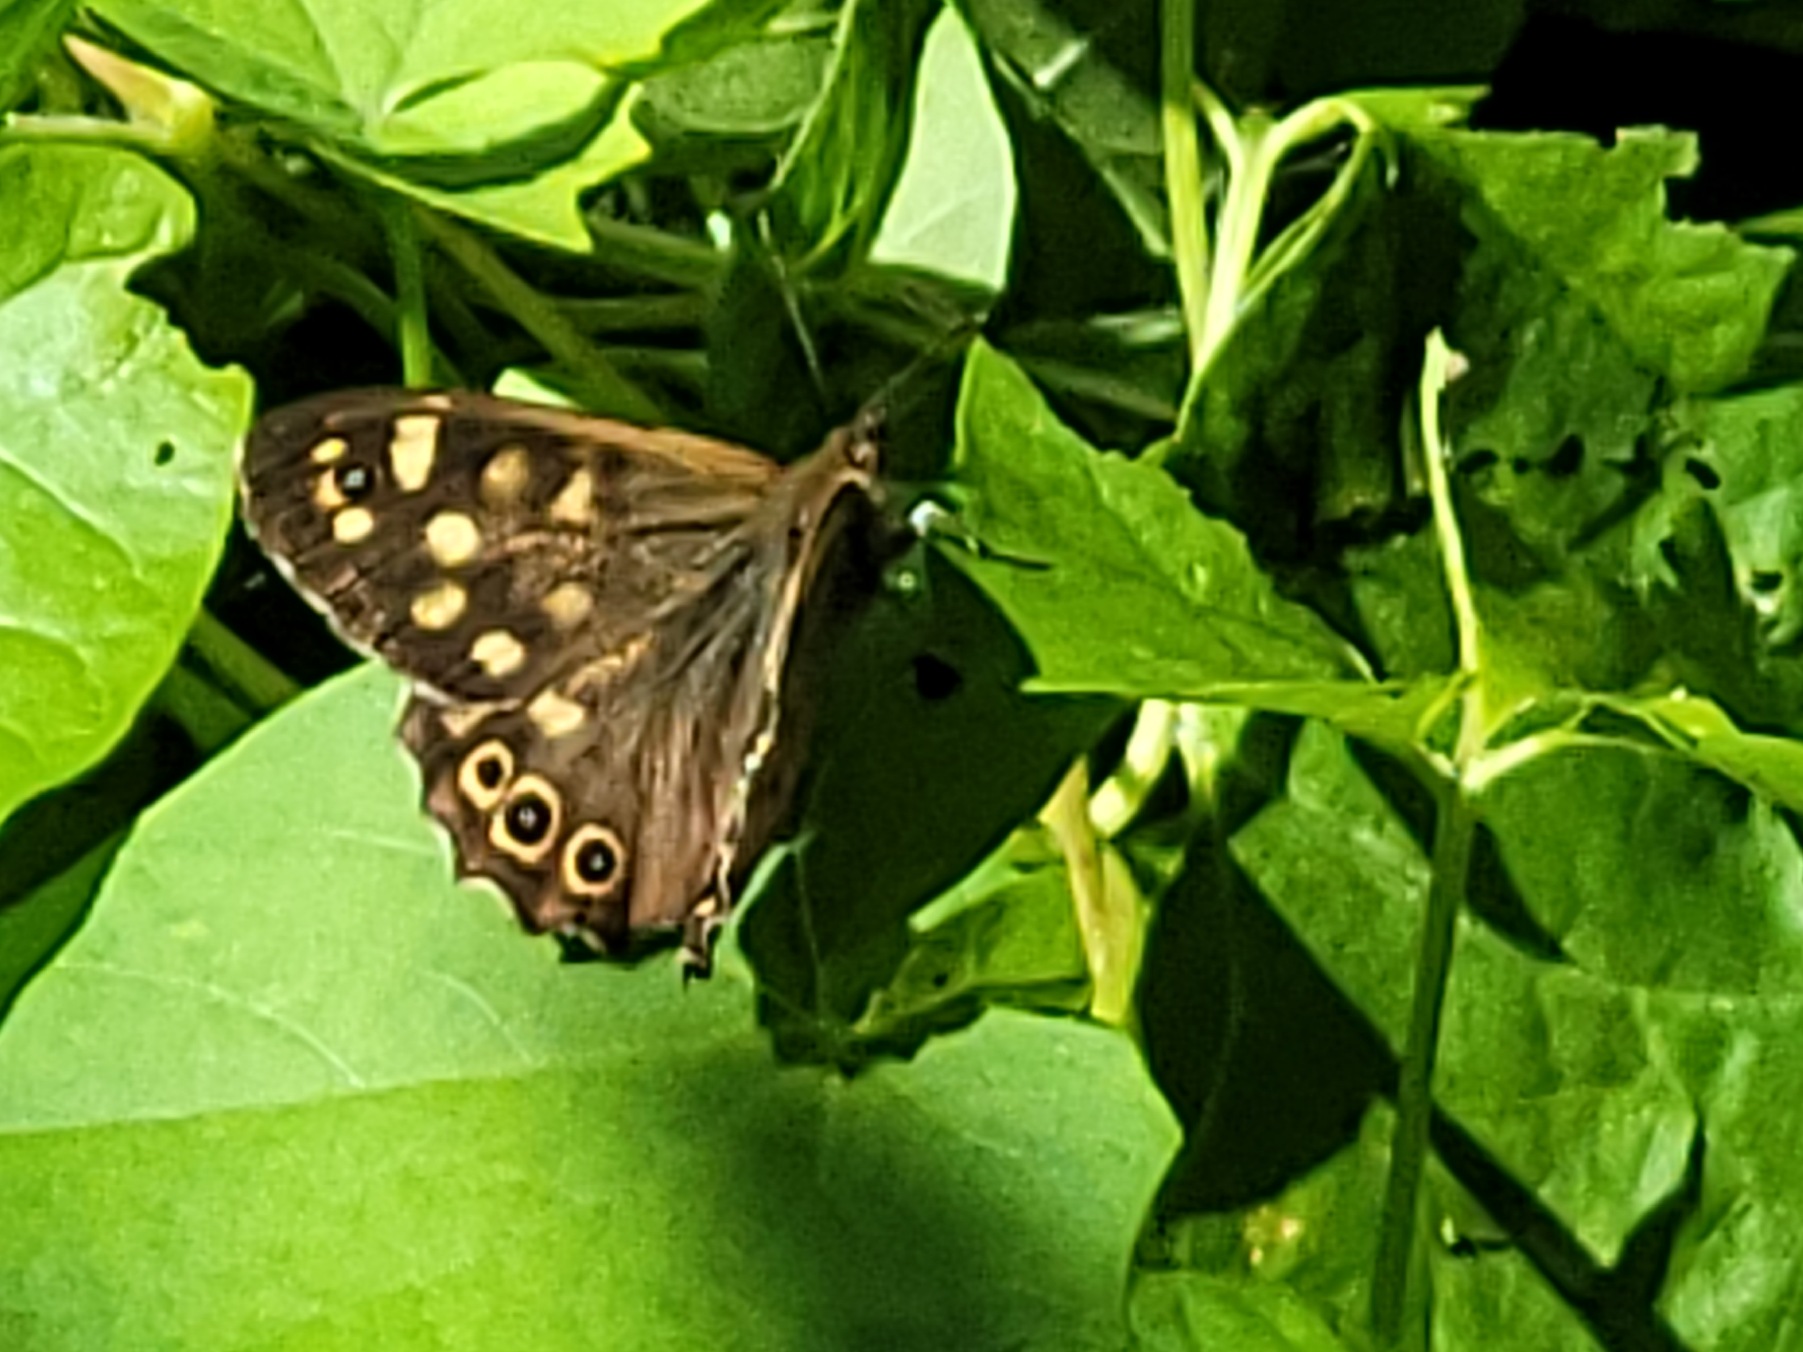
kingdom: Animalia
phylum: Arthropoda
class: Insecta
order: Lepidoptera
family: Nymphalidae
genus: Pararge
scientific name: Pararge aegeria
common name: Skovrandøje
